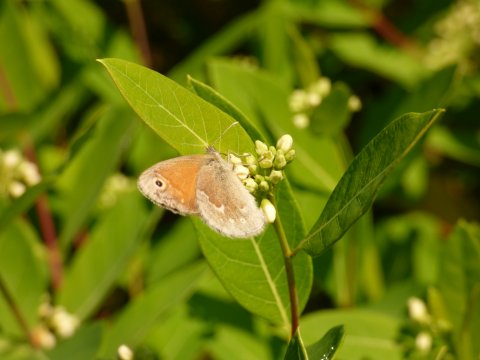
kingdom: Animalia
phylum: Arthropoda
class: Insecta
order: Lepidoptera
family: Nymphalidae
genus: Coenonympha
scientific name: Coenonympha tullia
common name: Large Heath
